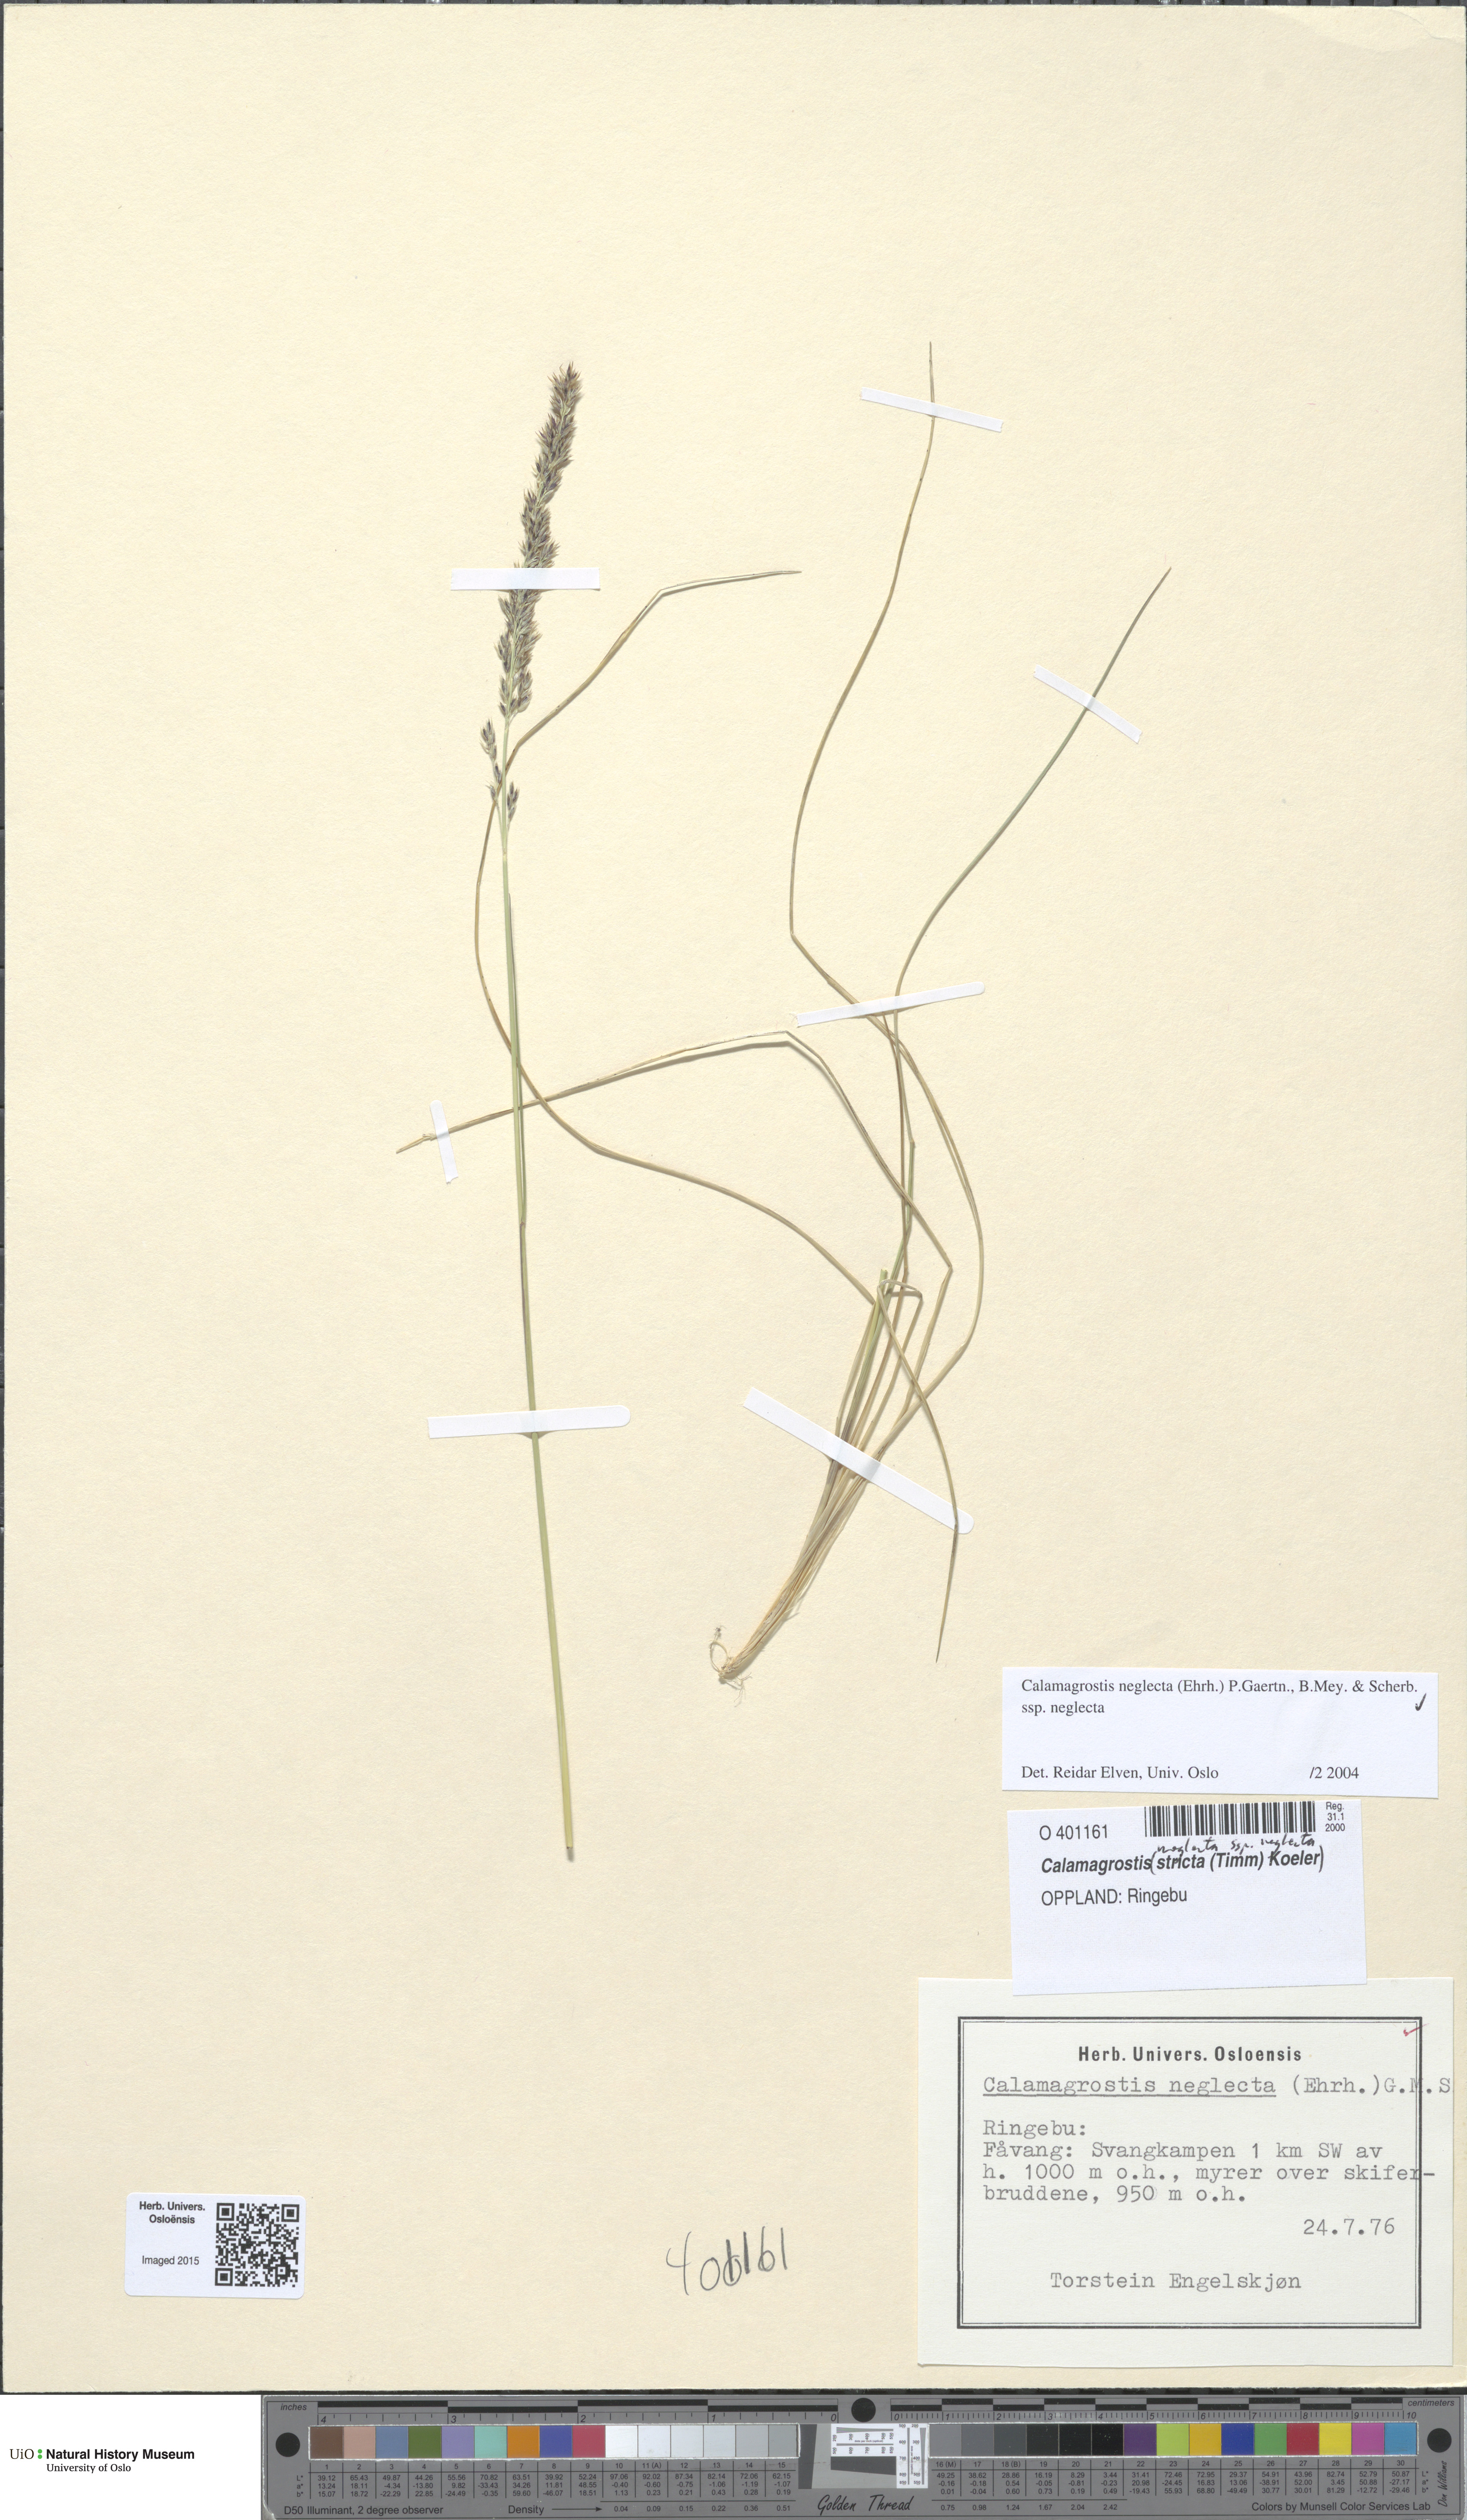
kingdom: Plantae
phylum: Tracheophyta
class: Liliopsida
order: Poales
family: Poaceae
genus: Achnatherum
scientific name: Achnatherum calamagrostis
